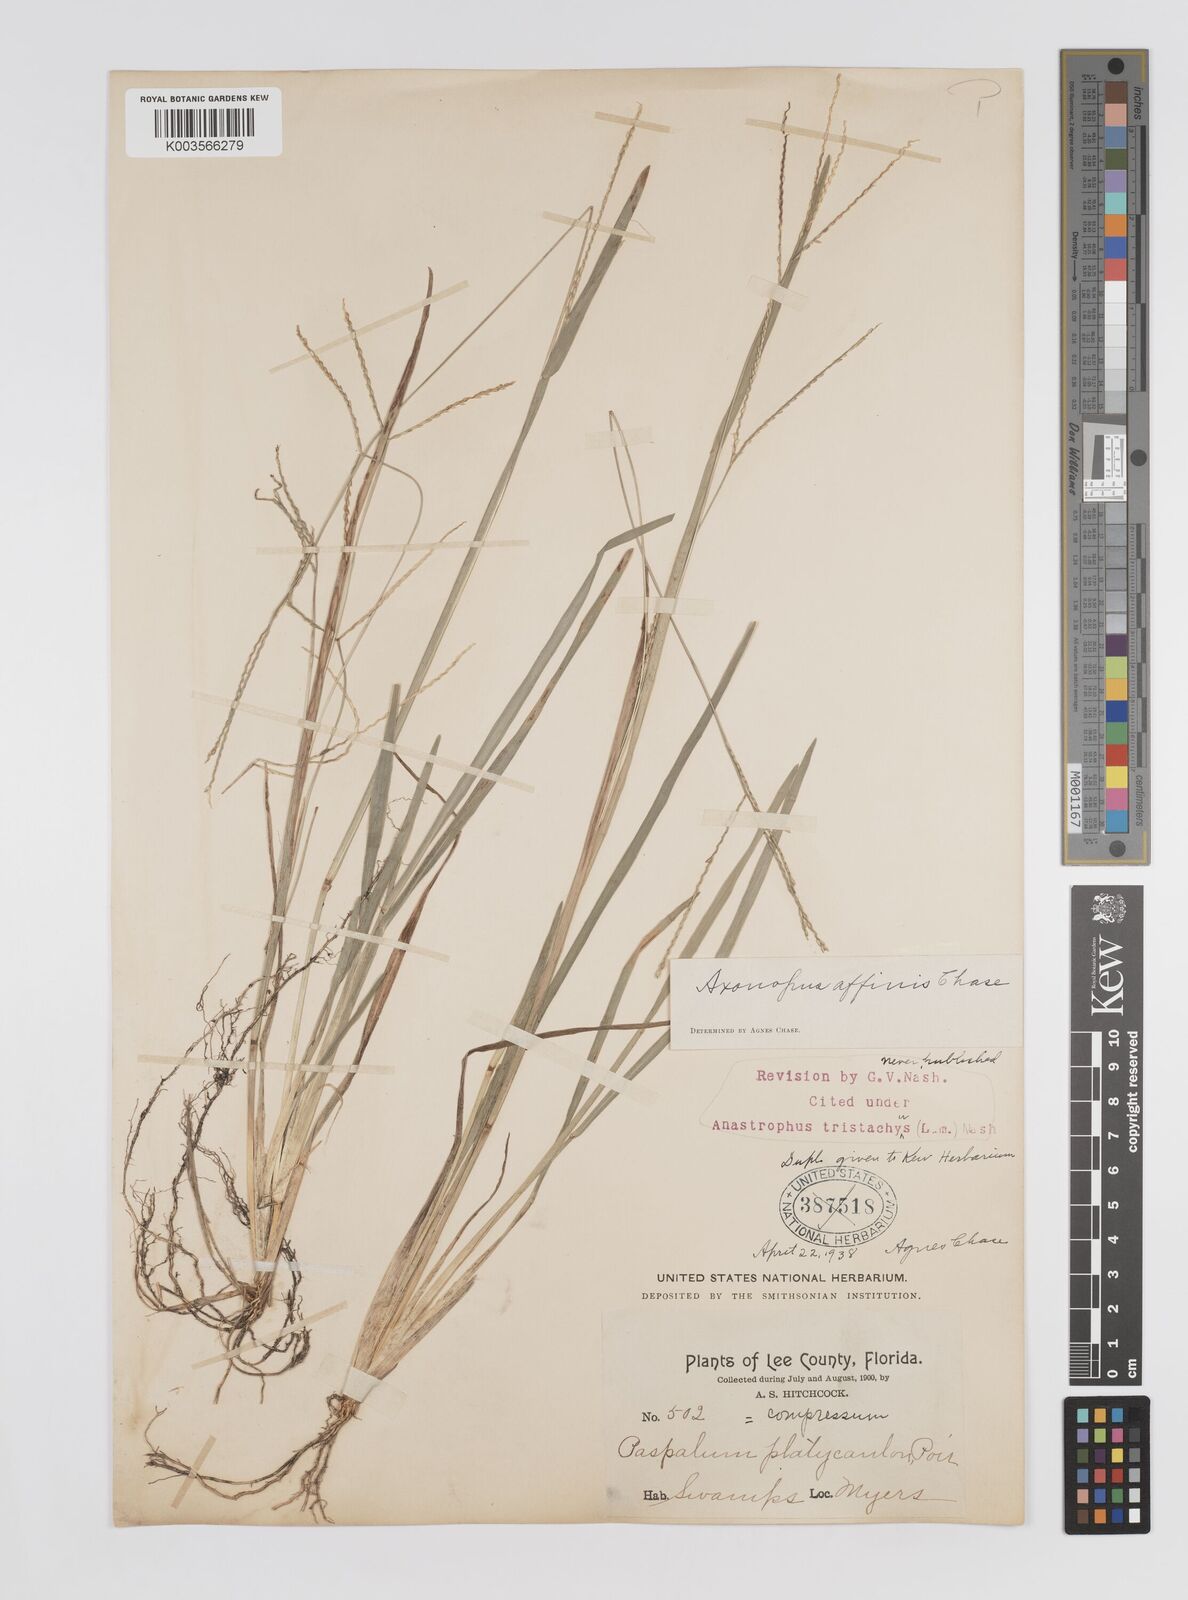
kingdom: Plantae
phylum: Tracheophyta
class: Liliopsida
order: Poales
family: Poaceae
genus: Axonopus
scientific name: Axonopus fissifolius
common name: Common carpetgrass
